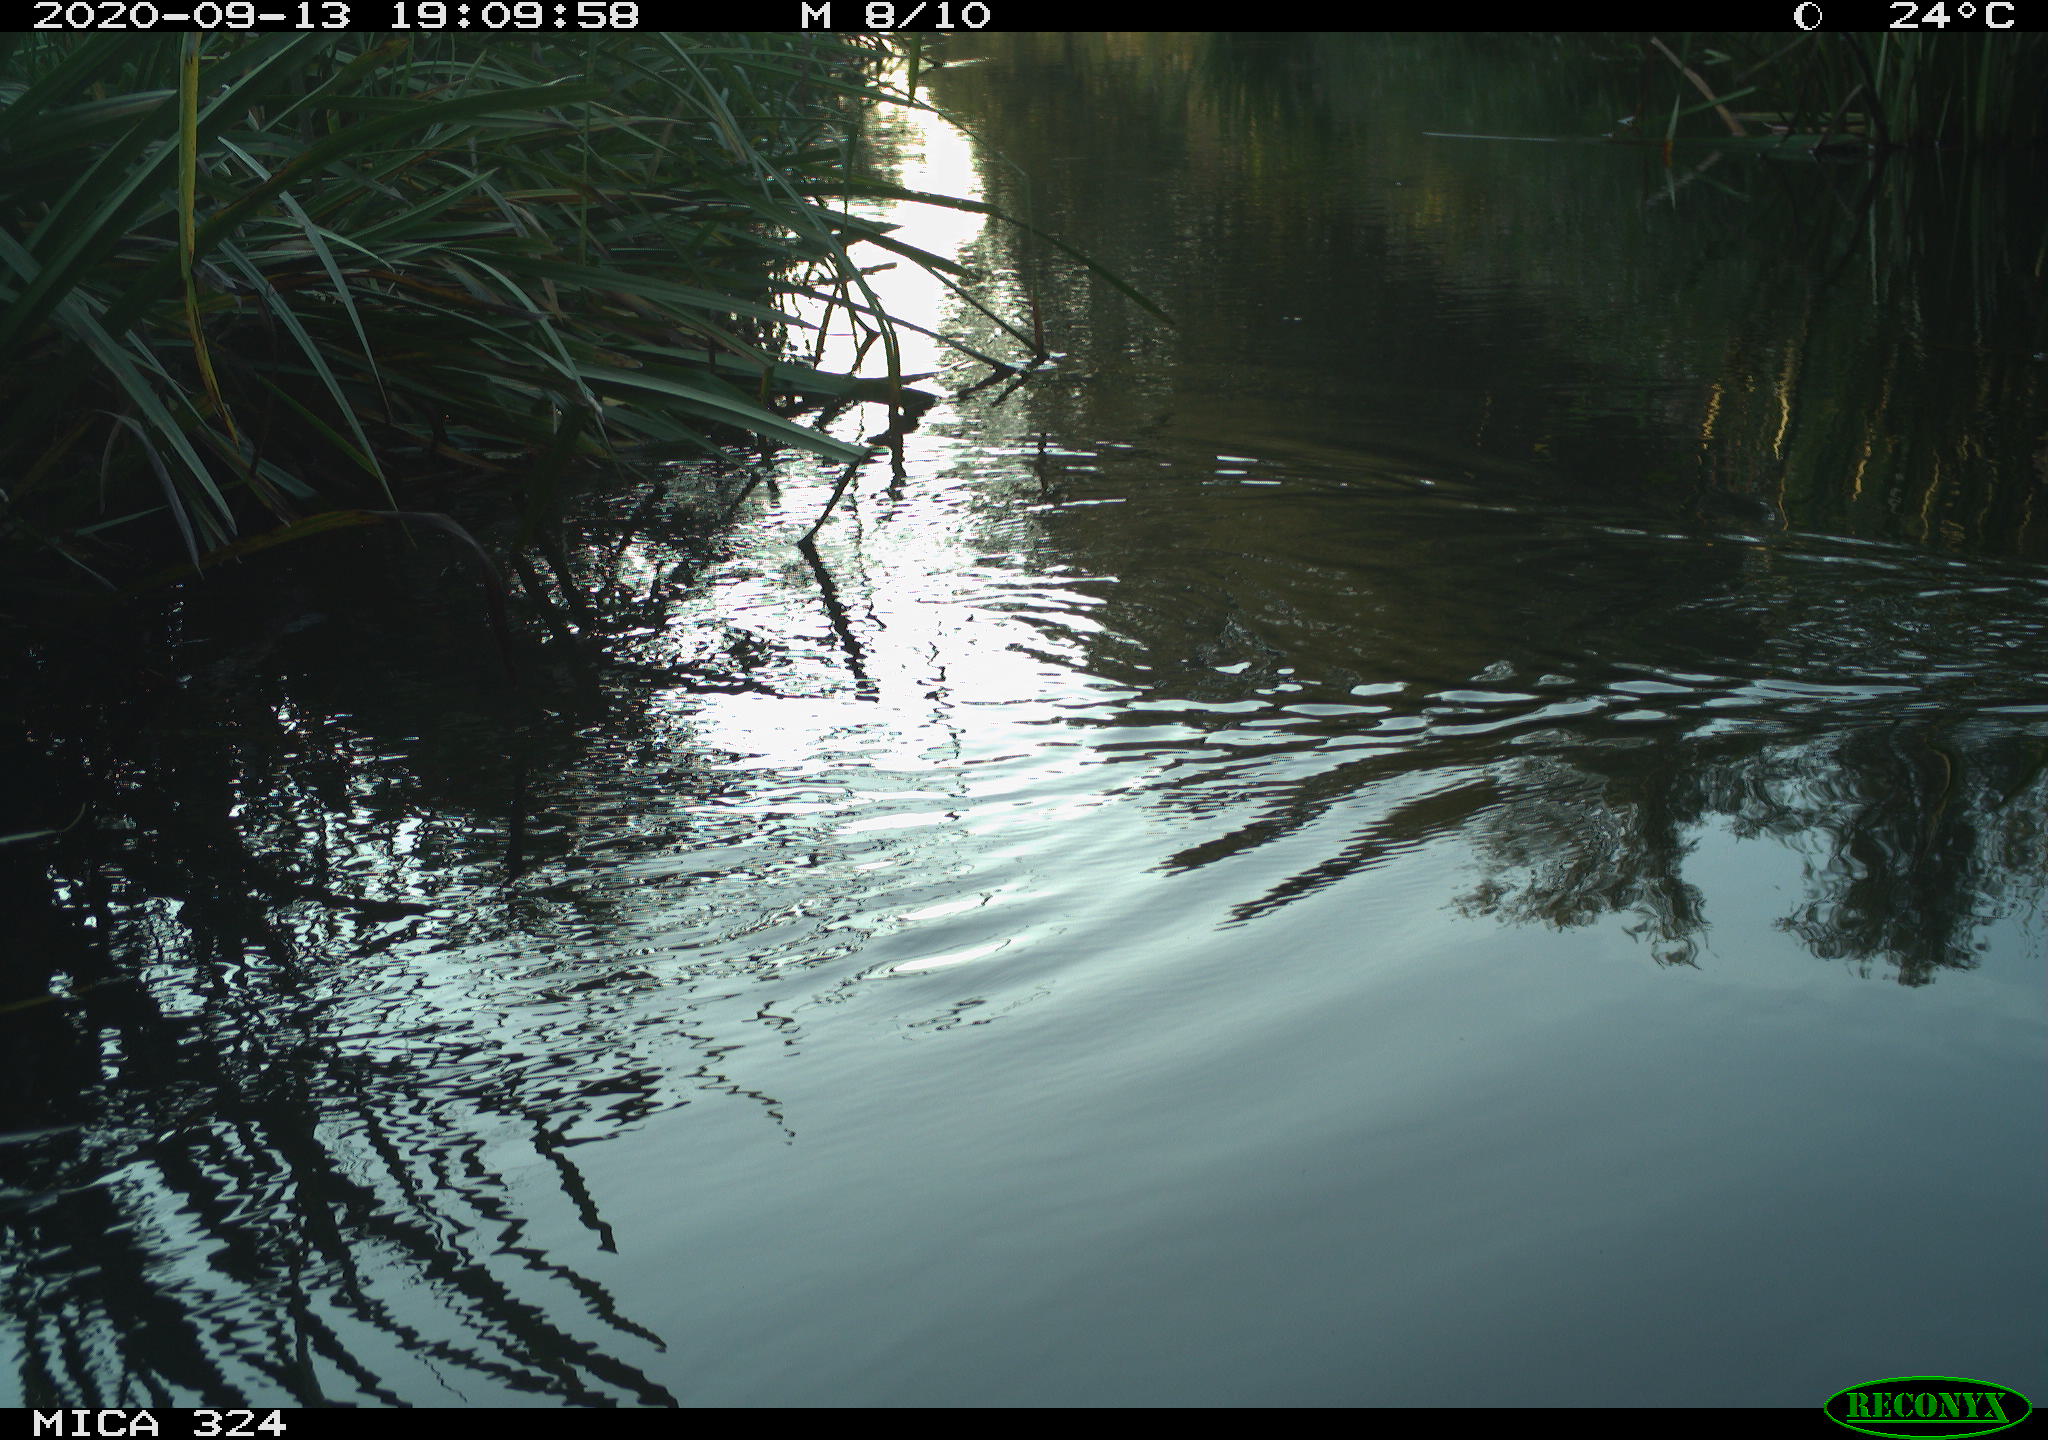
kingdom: Animalia
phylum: Chordata
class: Mammalia
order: Rodentia
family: Cricetidae
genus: Ondatra
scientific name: Ondatra zibethicus
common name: Muskrat
